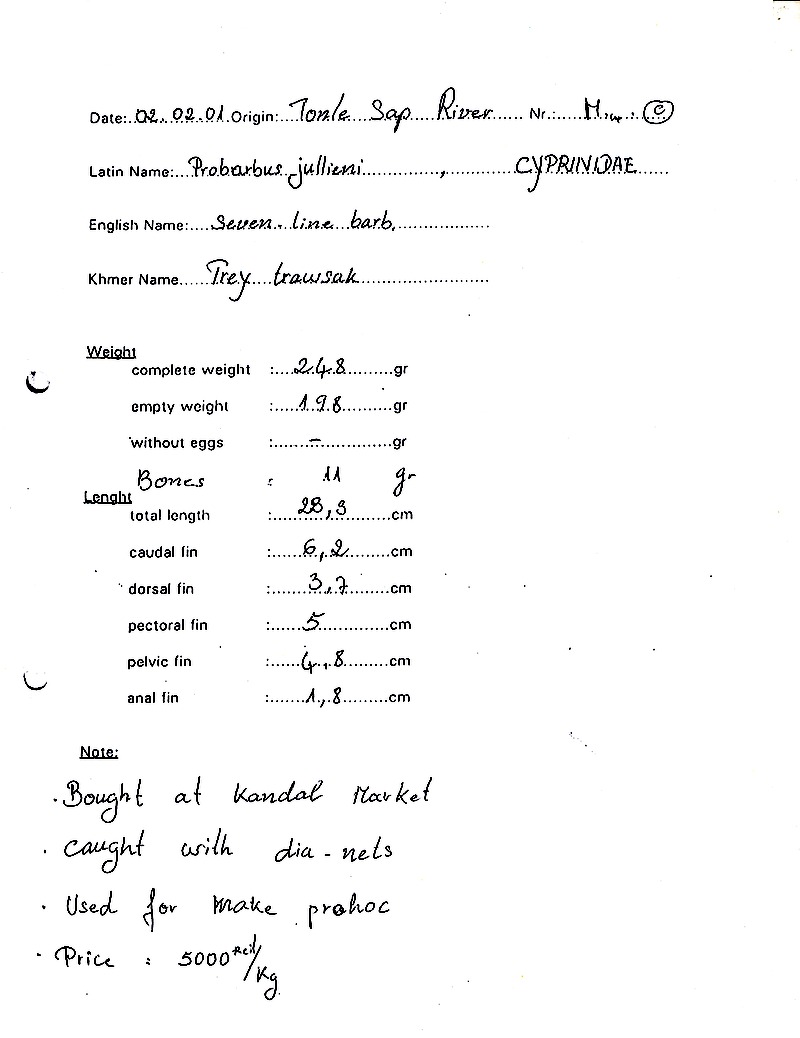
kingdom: Animalia
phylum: Chordata
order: Cypriniformes
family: Cyprinidae
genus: Probarbus
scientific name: Probarbus jullieni
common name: Jullien's golden carp
